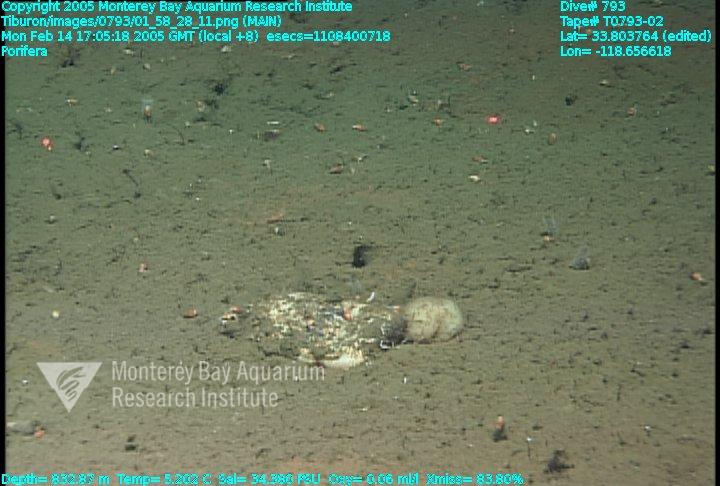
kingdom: Animalia
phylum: Porifera
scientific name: Porifera
